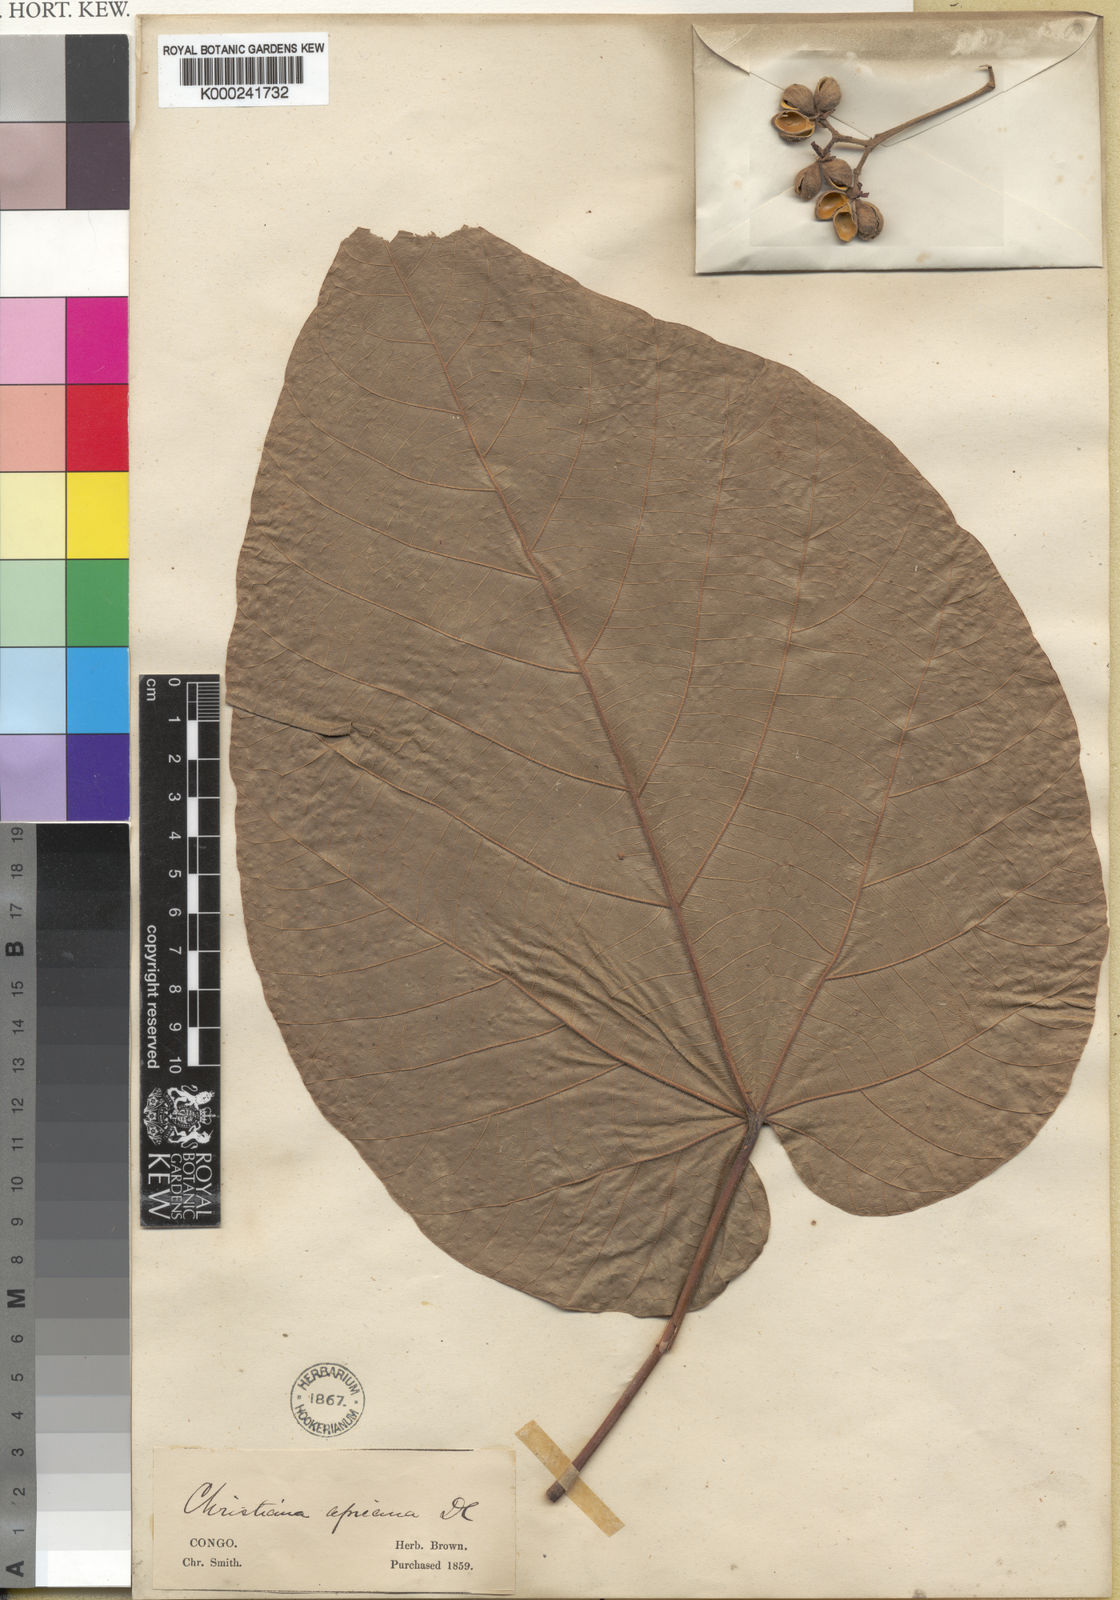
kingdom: Plantae
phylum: Tracheophyta
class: Magnoliopsida
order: Malvales
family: Malvaceae
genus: Christiana
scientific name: Christiana africana
